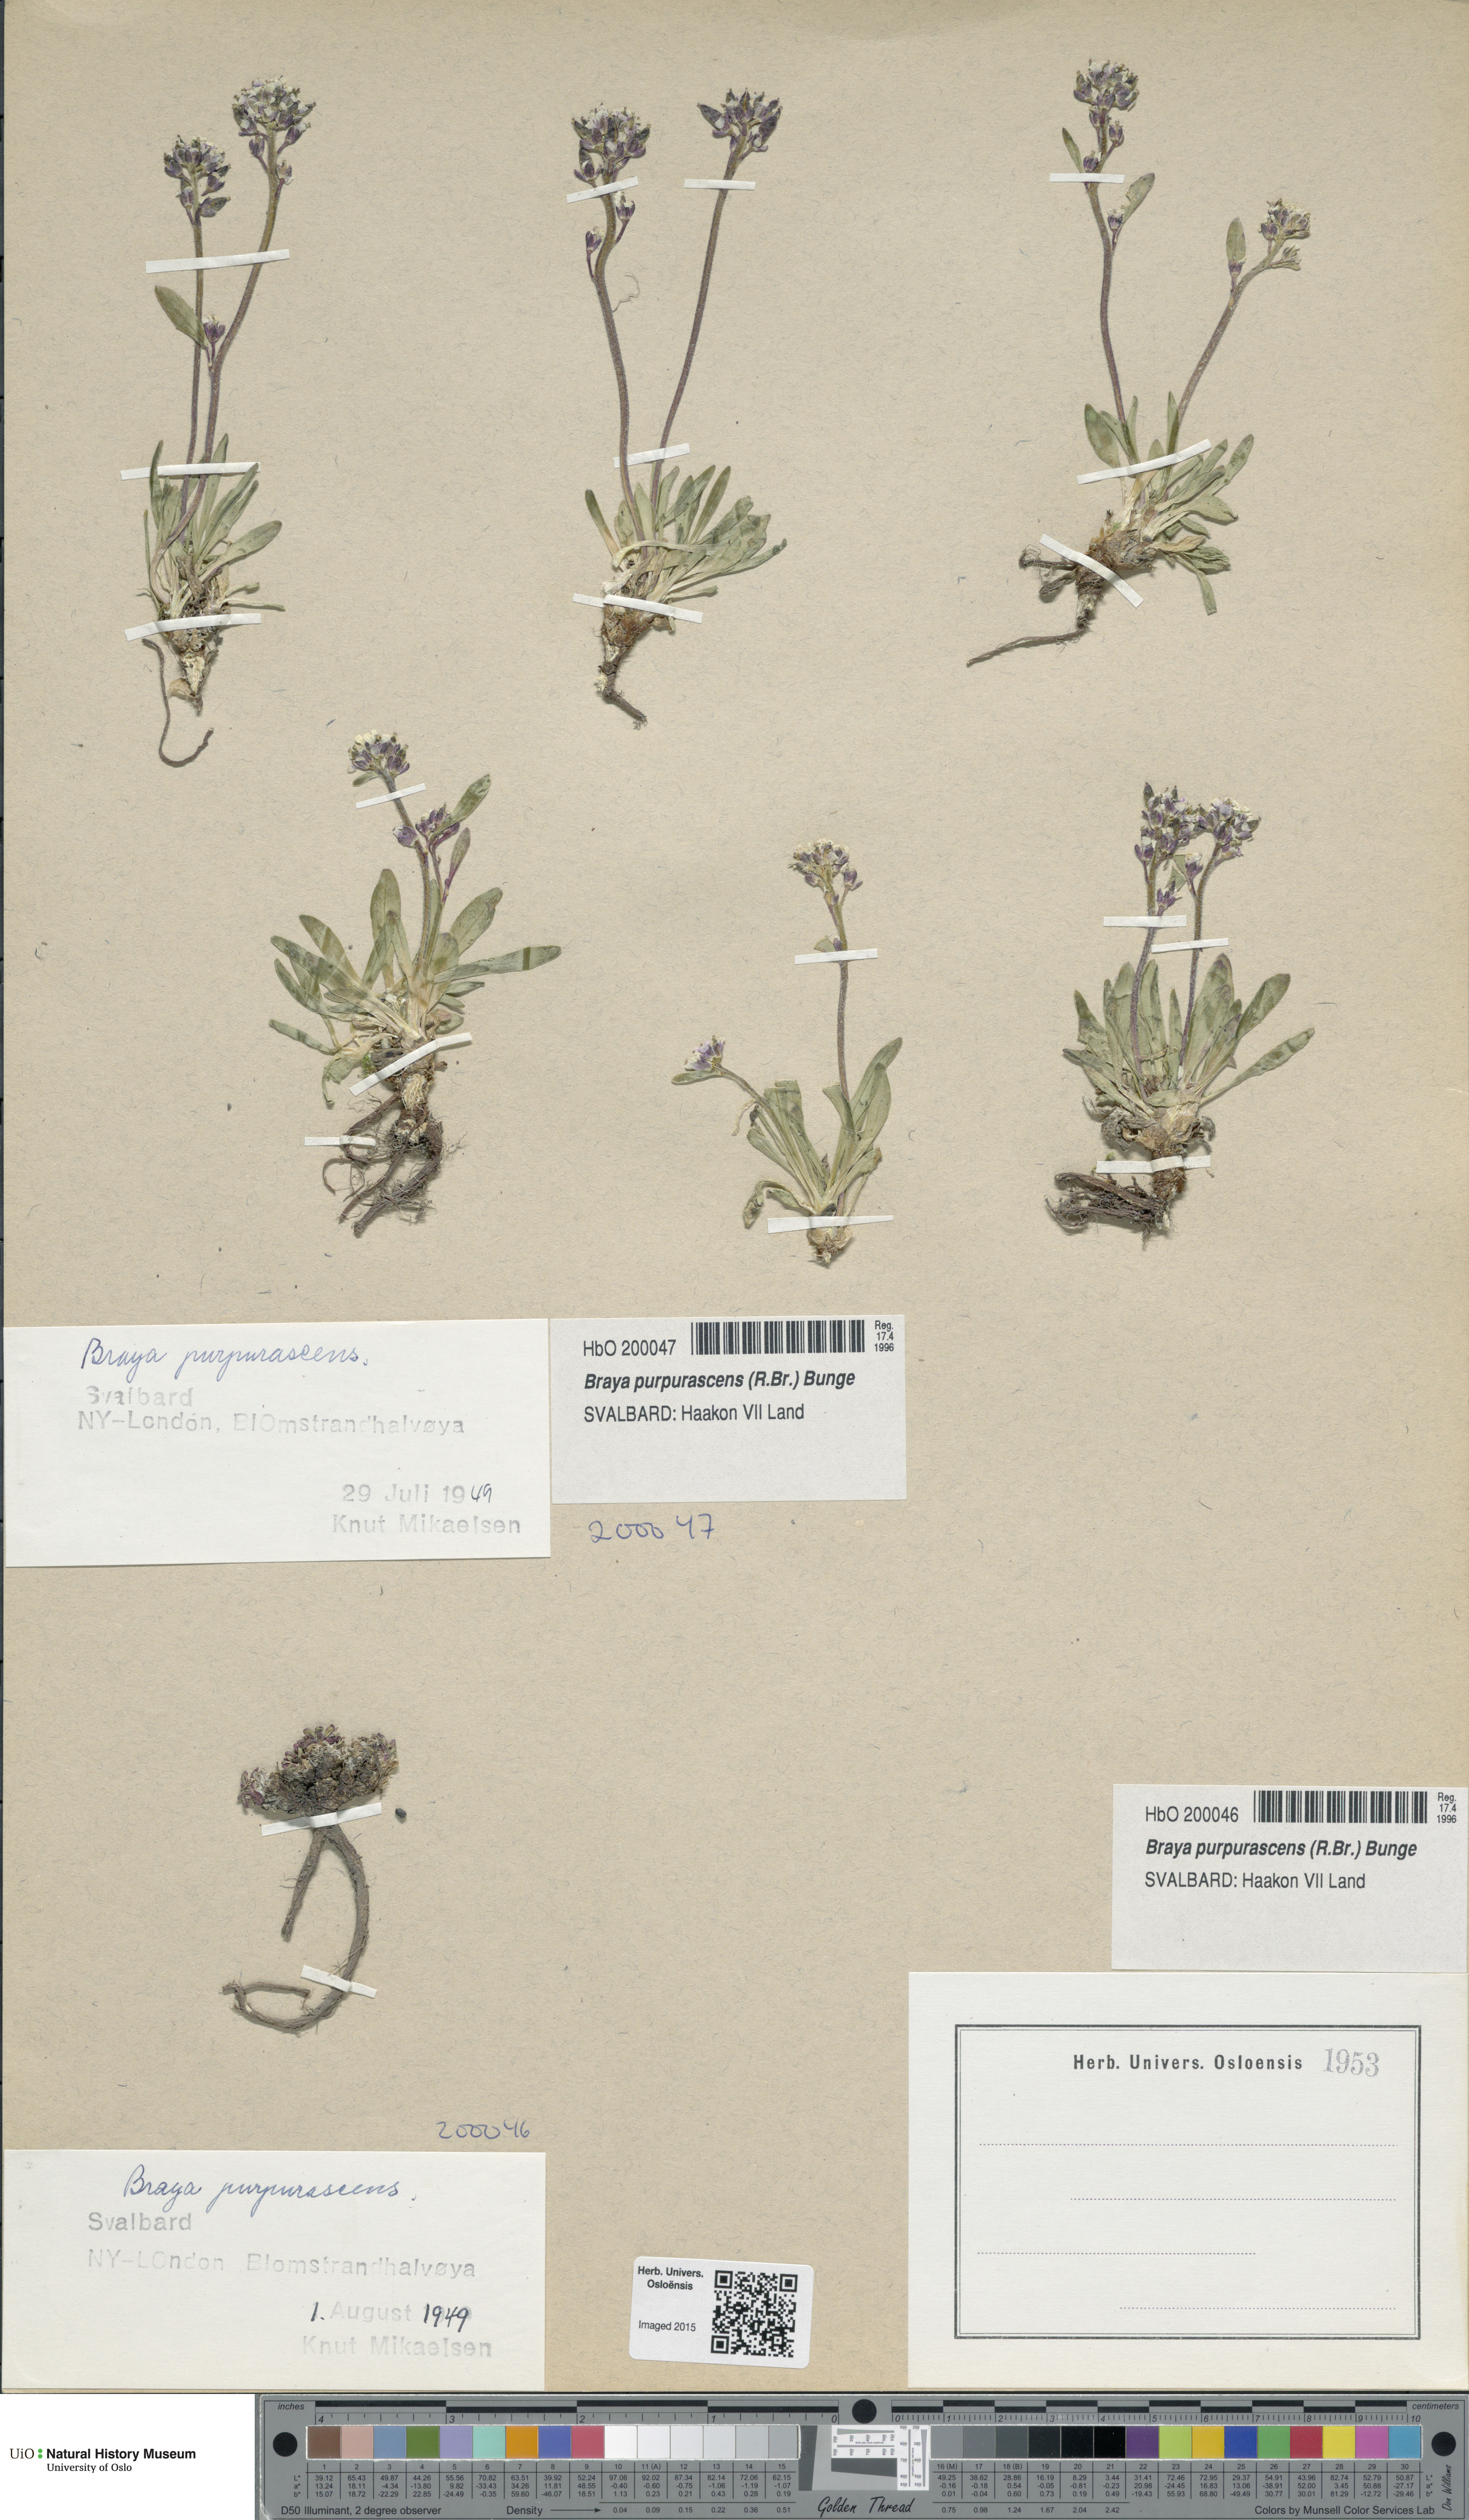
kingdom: Plantae
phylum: Tracheophyta
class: Magnoliopsida
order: Brassicales
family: Brassicaceae
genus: Braya
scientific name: Braya purpurascens
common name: Alpine braya
